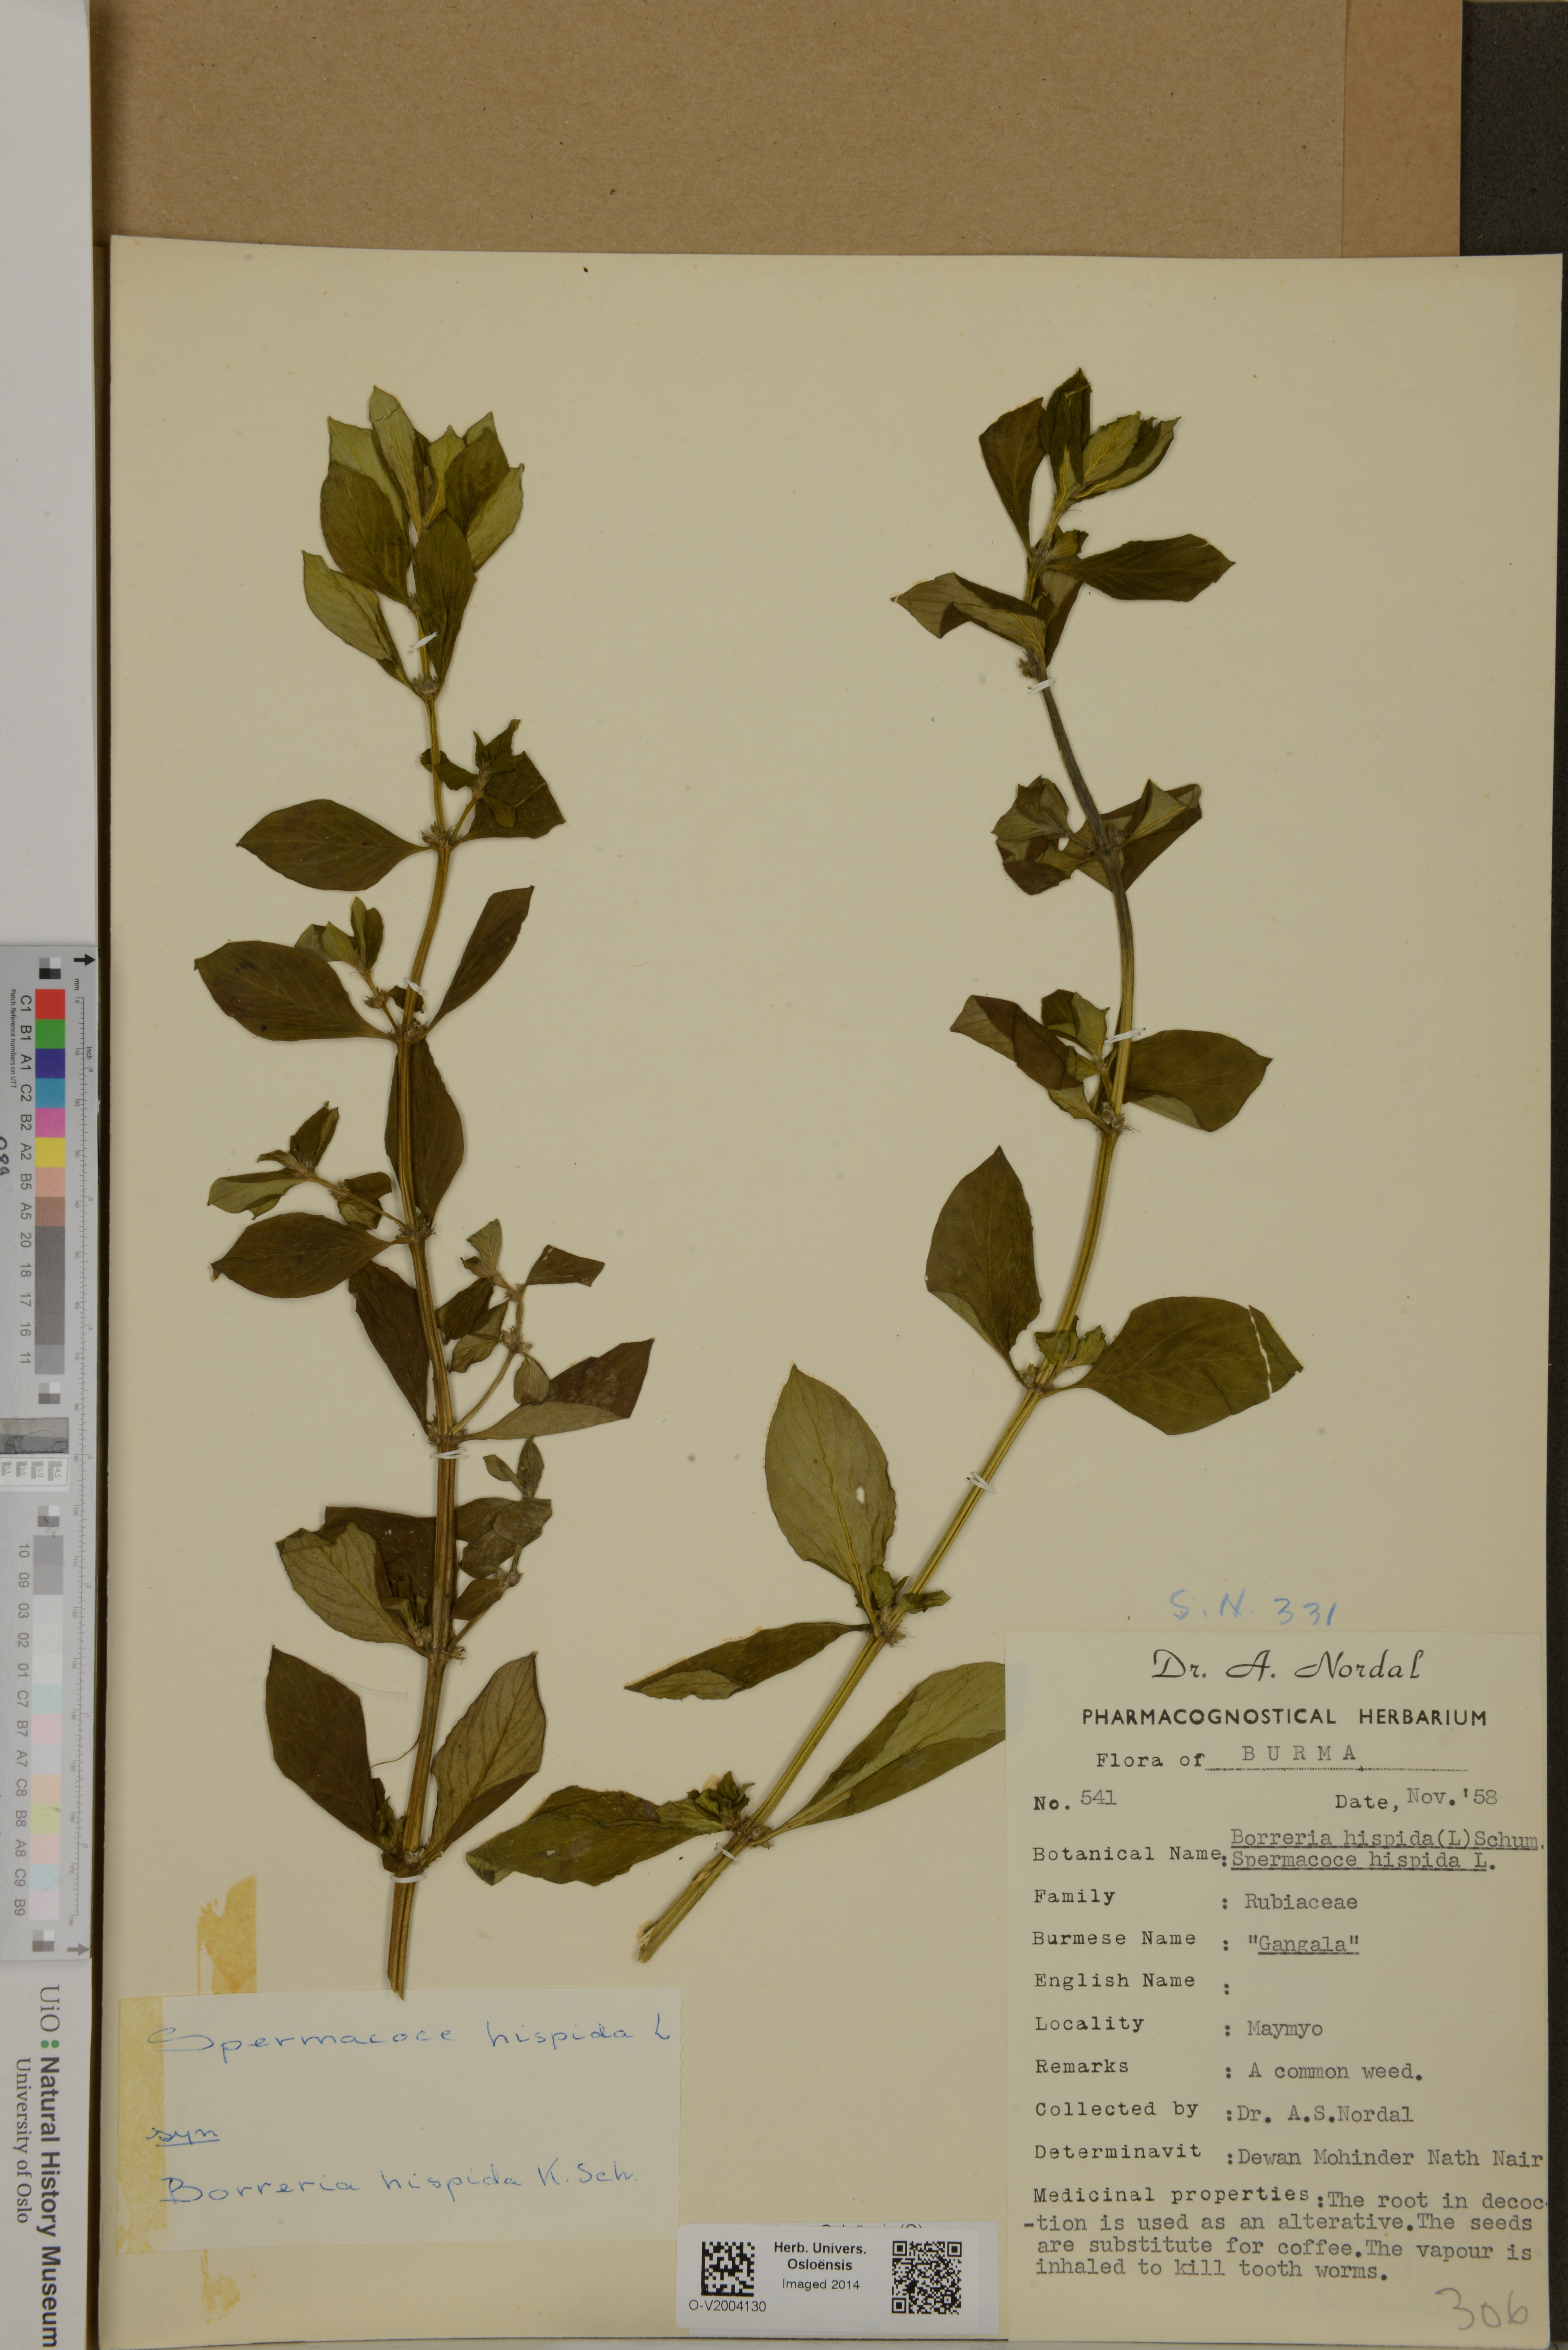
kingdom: Plantae
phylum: Tracheophyta
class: Magnoliopsida
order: Gentianales
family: Rubiaceae
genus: Spermacoce
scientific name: Spermacoce neohispida
